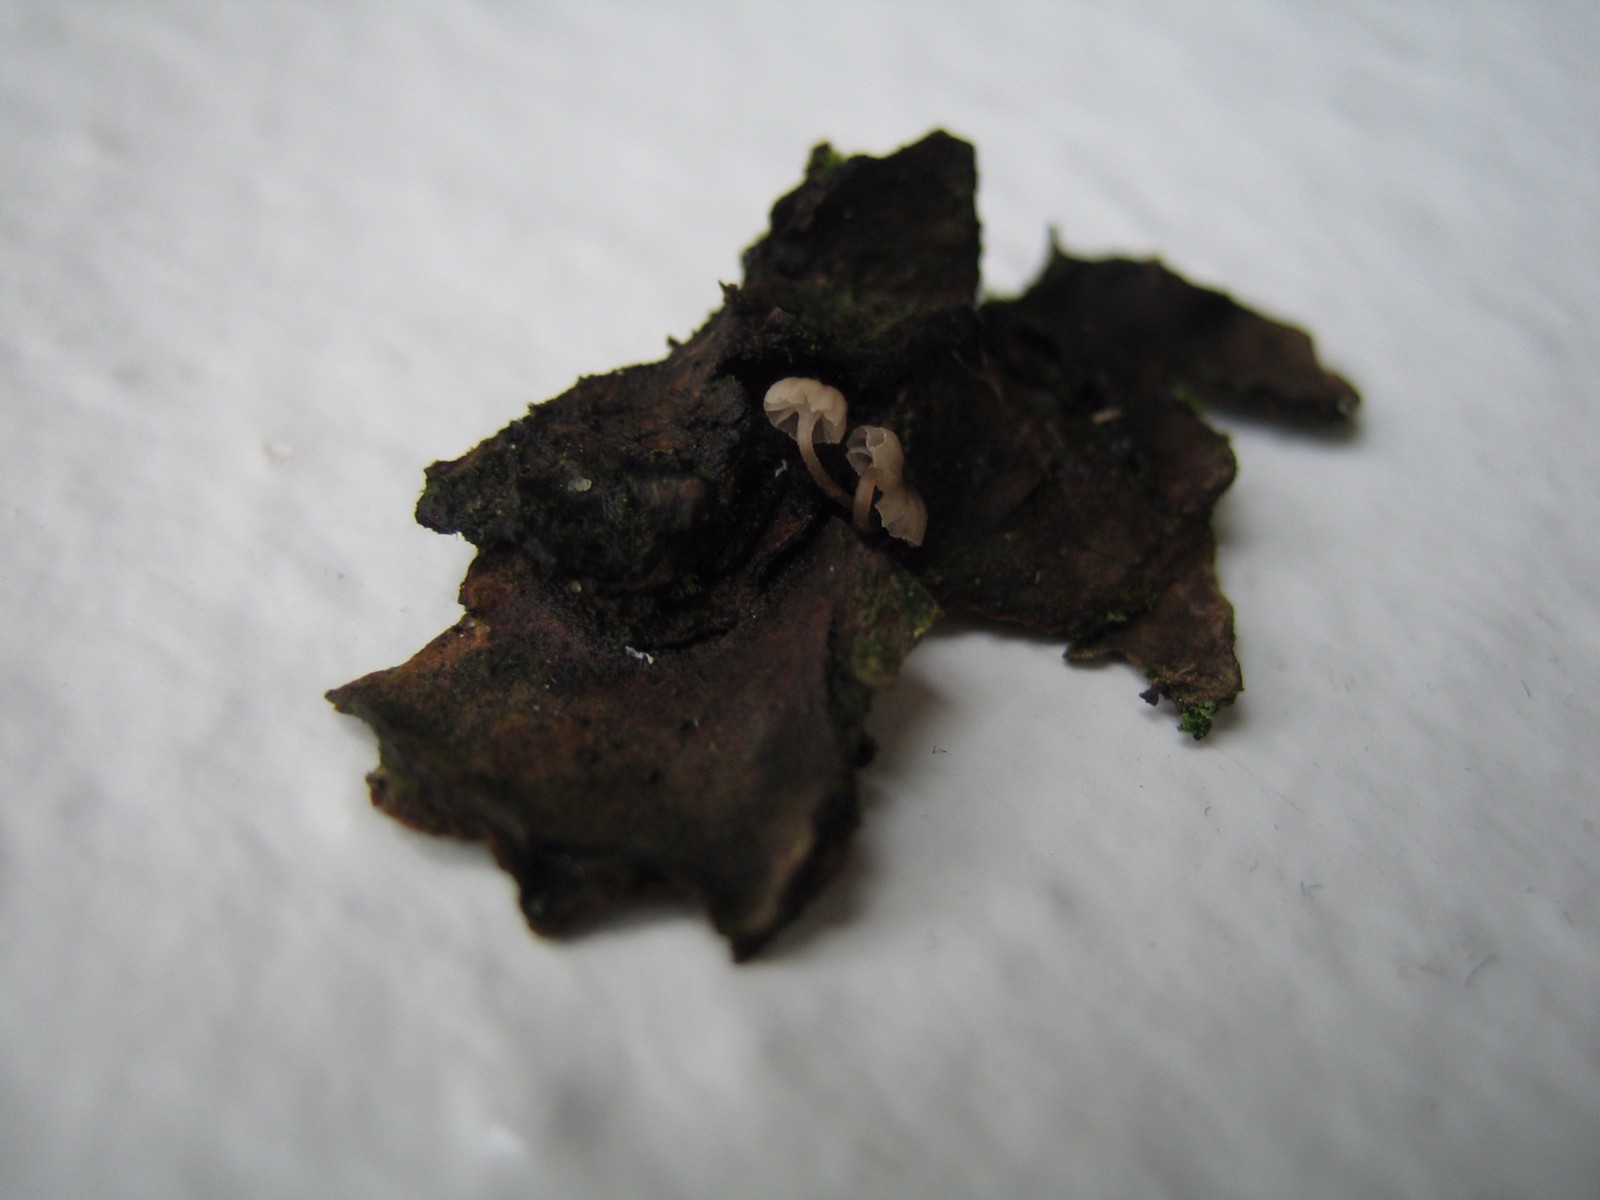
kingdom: Fungi
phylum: Basidiomycota
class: Agaricomycetes
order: Agaricales
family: Mycenaceae
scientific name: Mycenaceae
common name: huesvampfamilien
